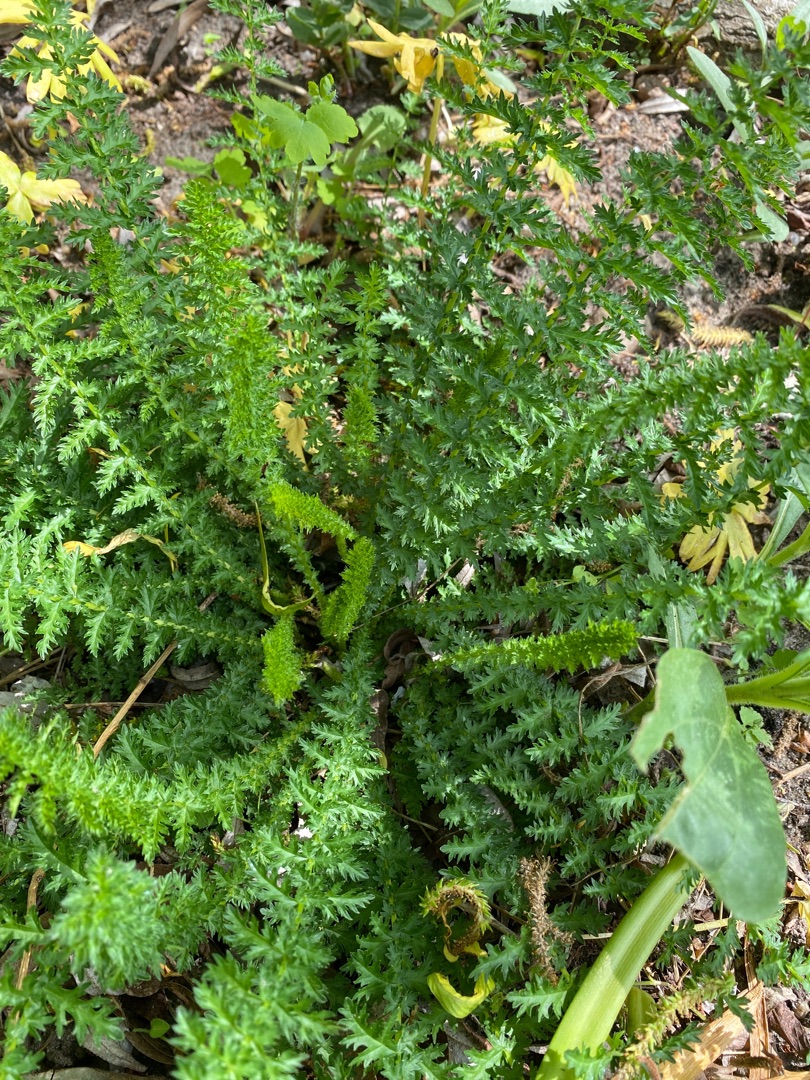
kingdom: Plantae
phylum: Tracheophyta
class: Magnoliopsida
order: Rosales
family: Rosaceae
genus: Filipendula
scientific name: Filipendula vulgaris
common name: Knoldet mjødurt
